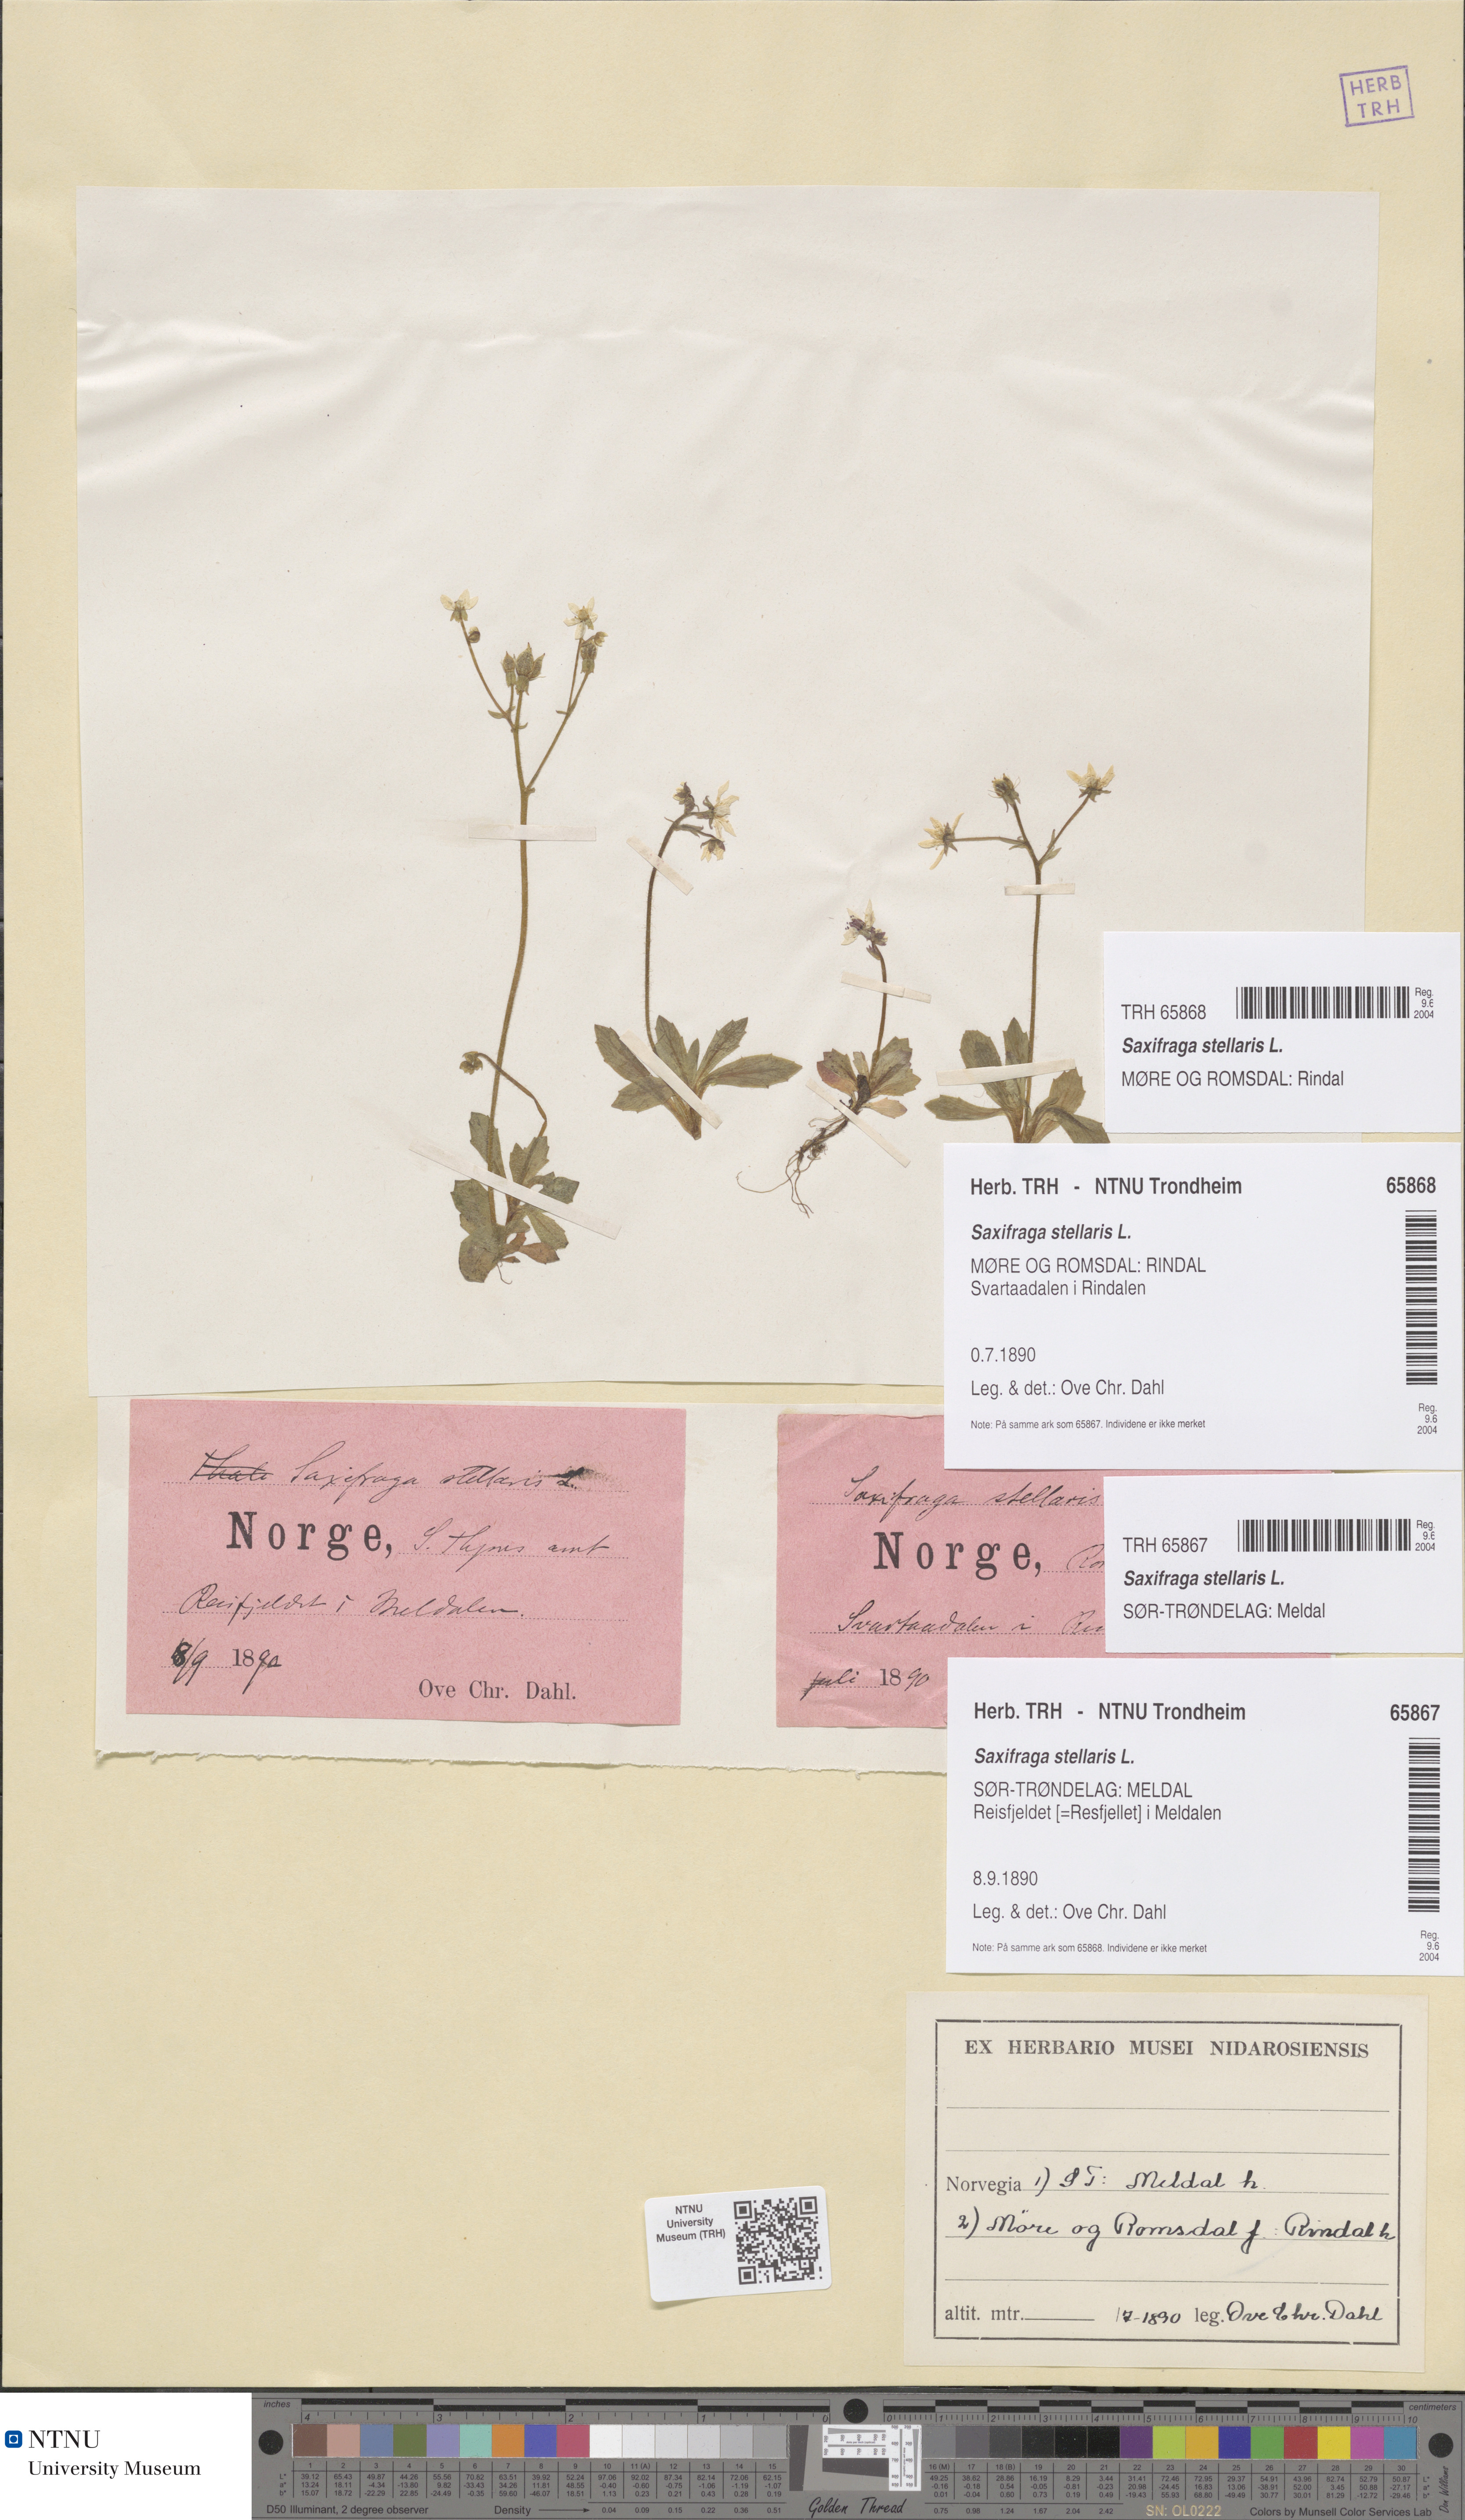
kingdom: Plantae
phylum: Tracheophyta
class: Magnoliopsida
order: Saxifragales
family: Saxifragaceae
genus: Micranthes
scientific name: Micranthes stellaris
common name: Starry saxifrage
